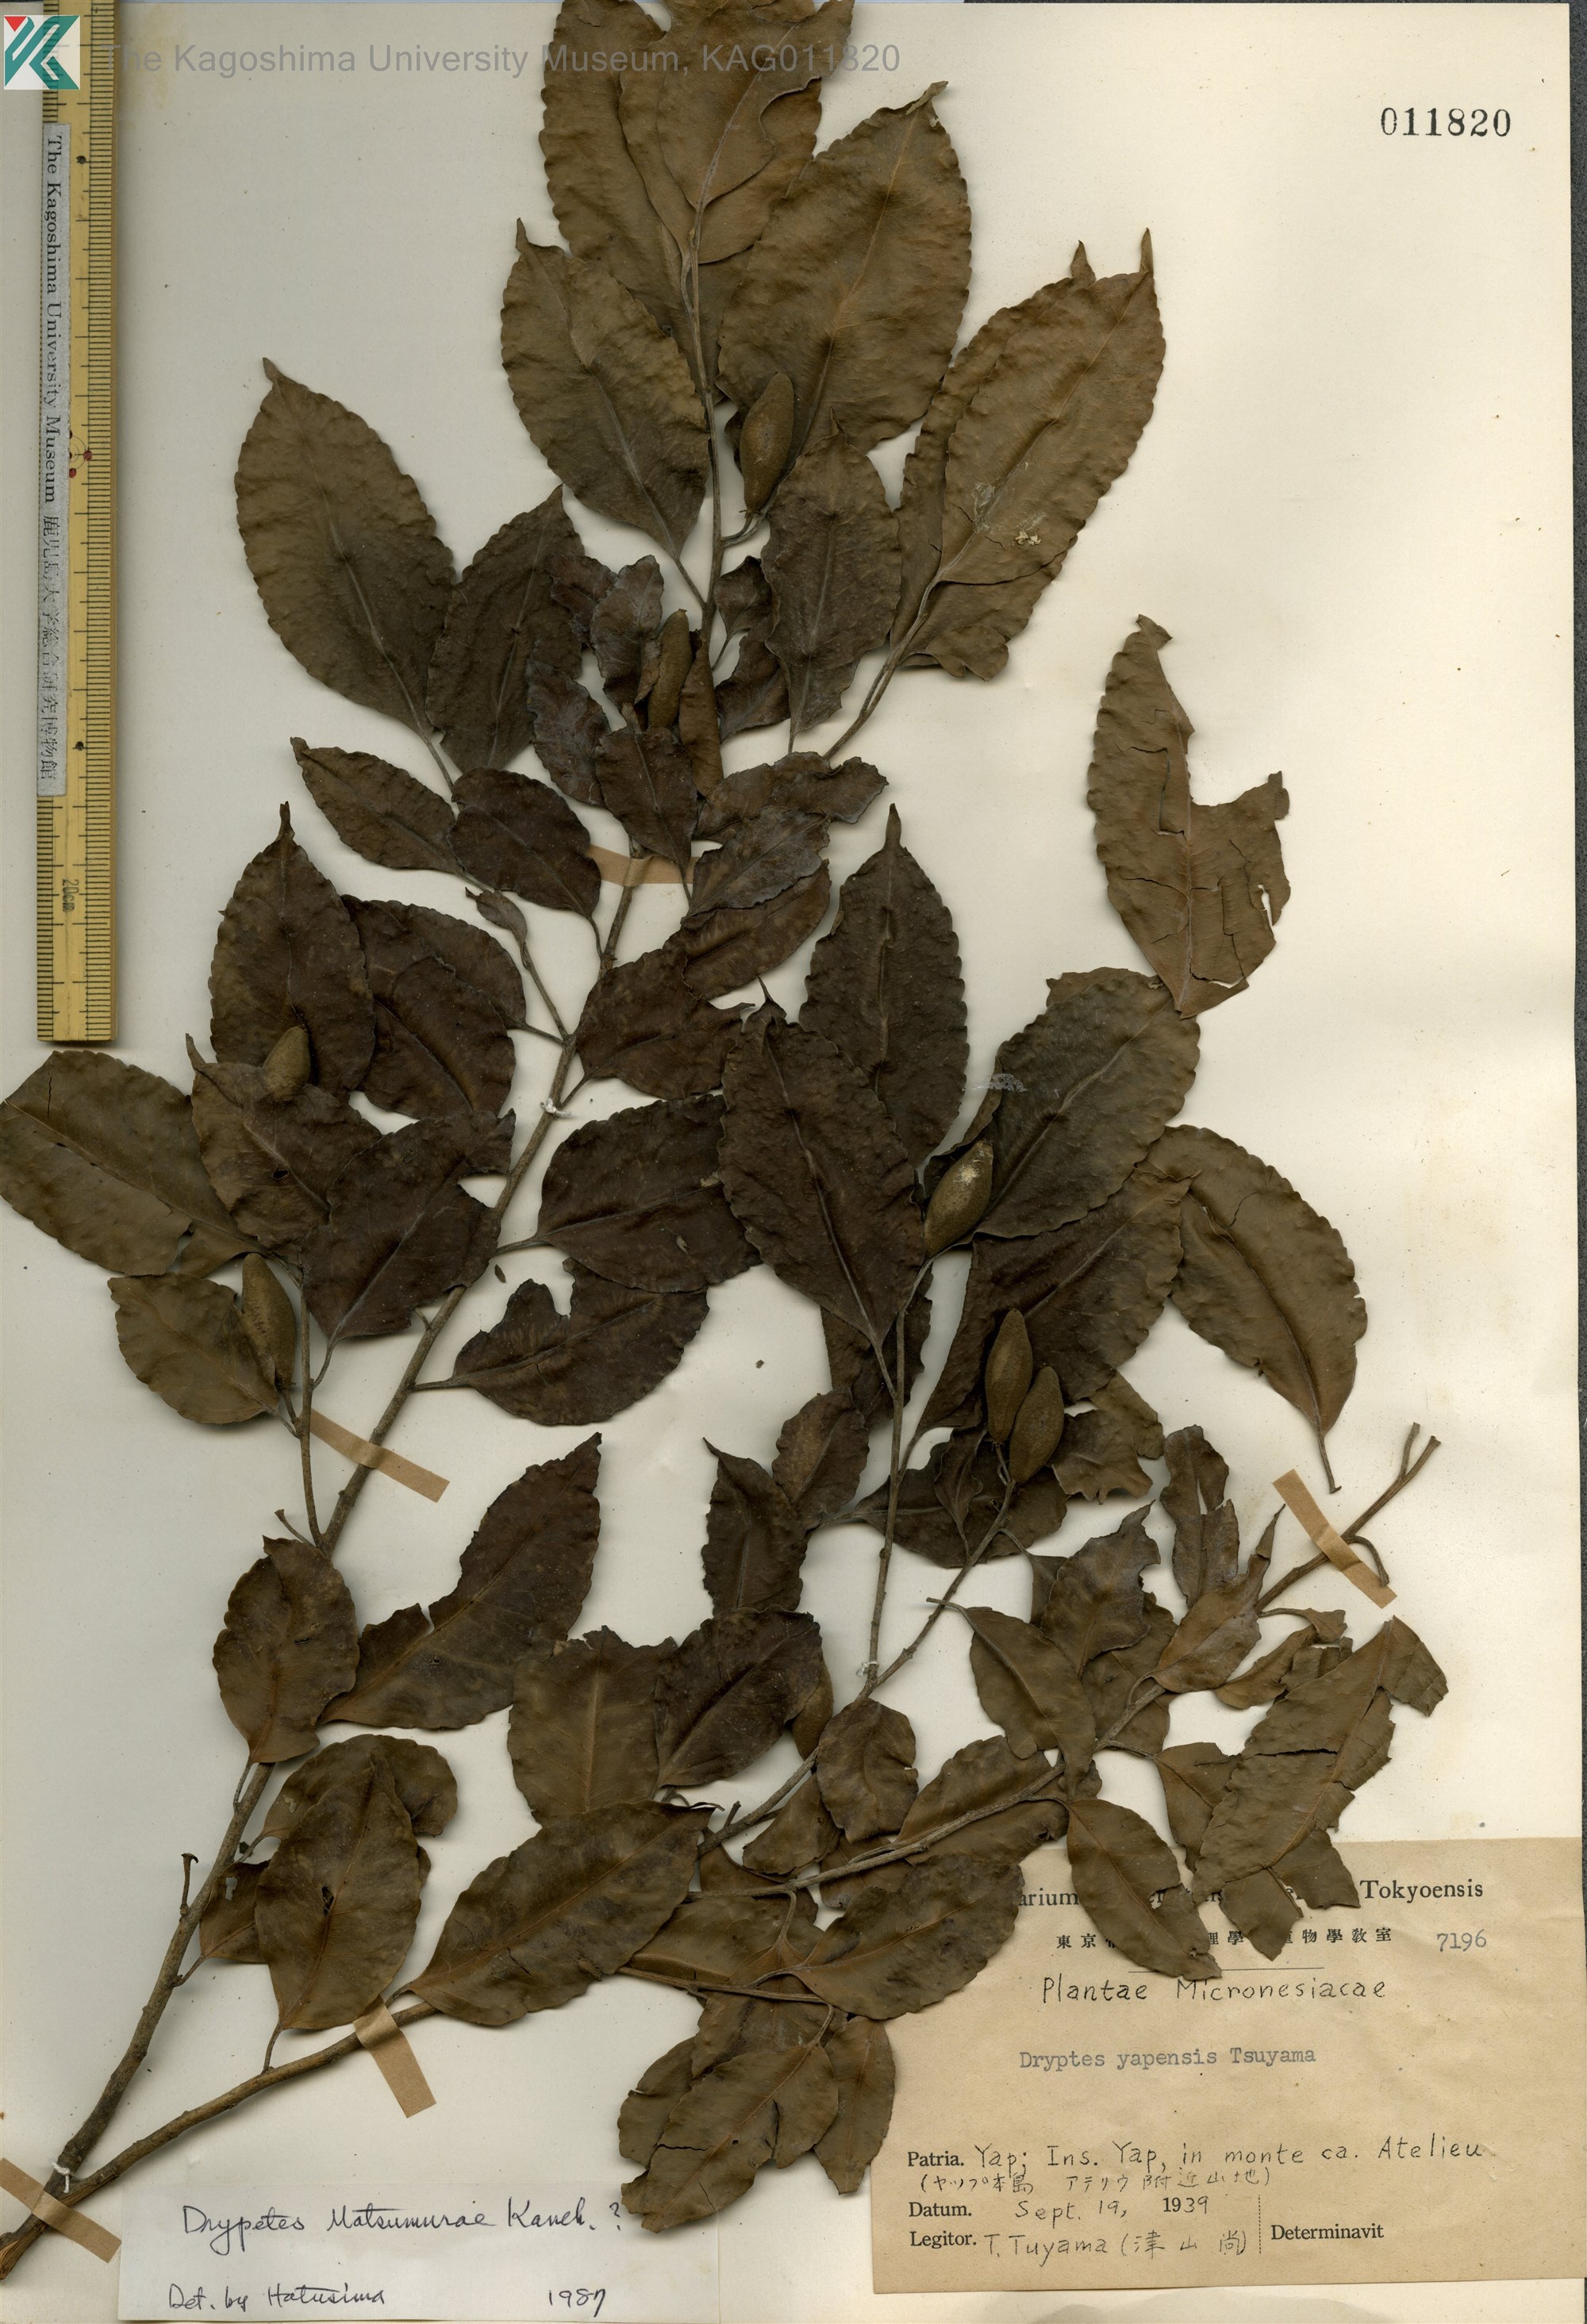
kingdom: Plantae
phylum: Tracheophyta
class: Magnoliopsida
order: Malpighiales
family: Putranjivaceae
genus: Putranjiva
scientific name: Putranjiva matsumurae
